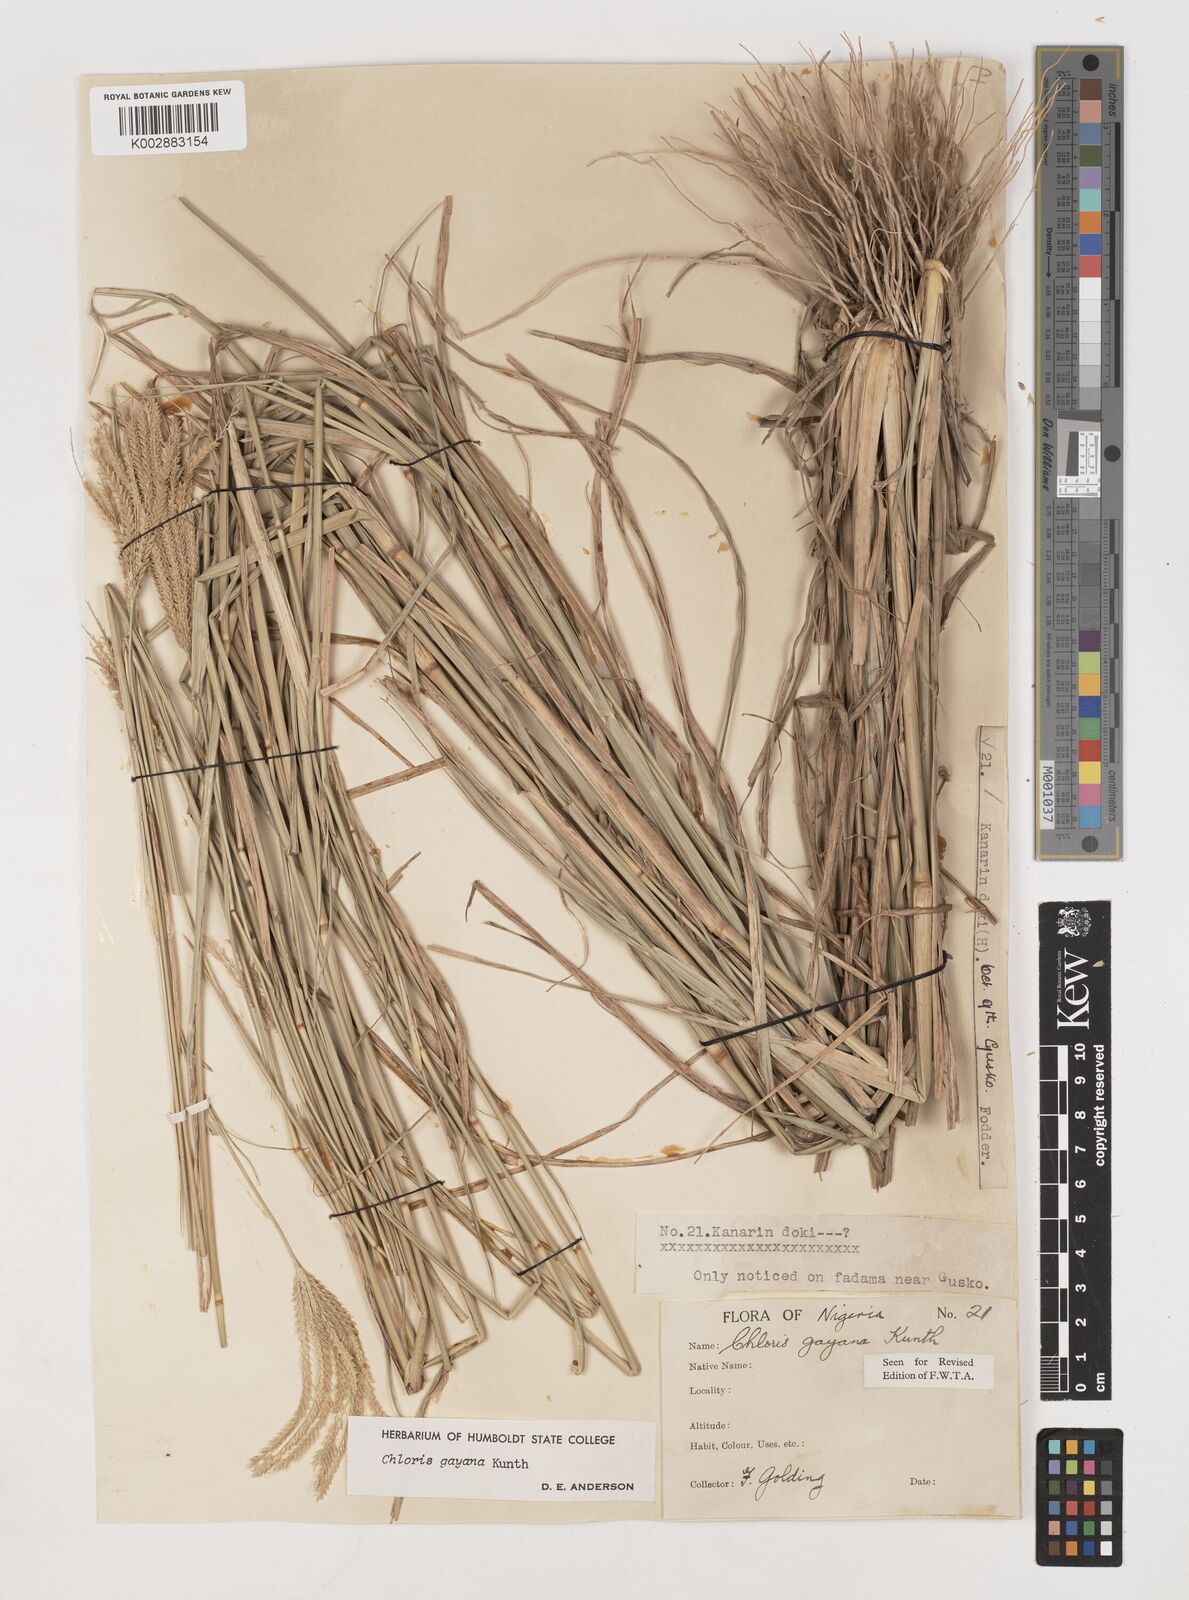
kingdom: Plantae
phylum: Tracheophyta
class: Liliopsida
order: Poales
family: Poaceae
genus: Chloris
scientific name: Chloris gayana
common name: Rhodes grass
